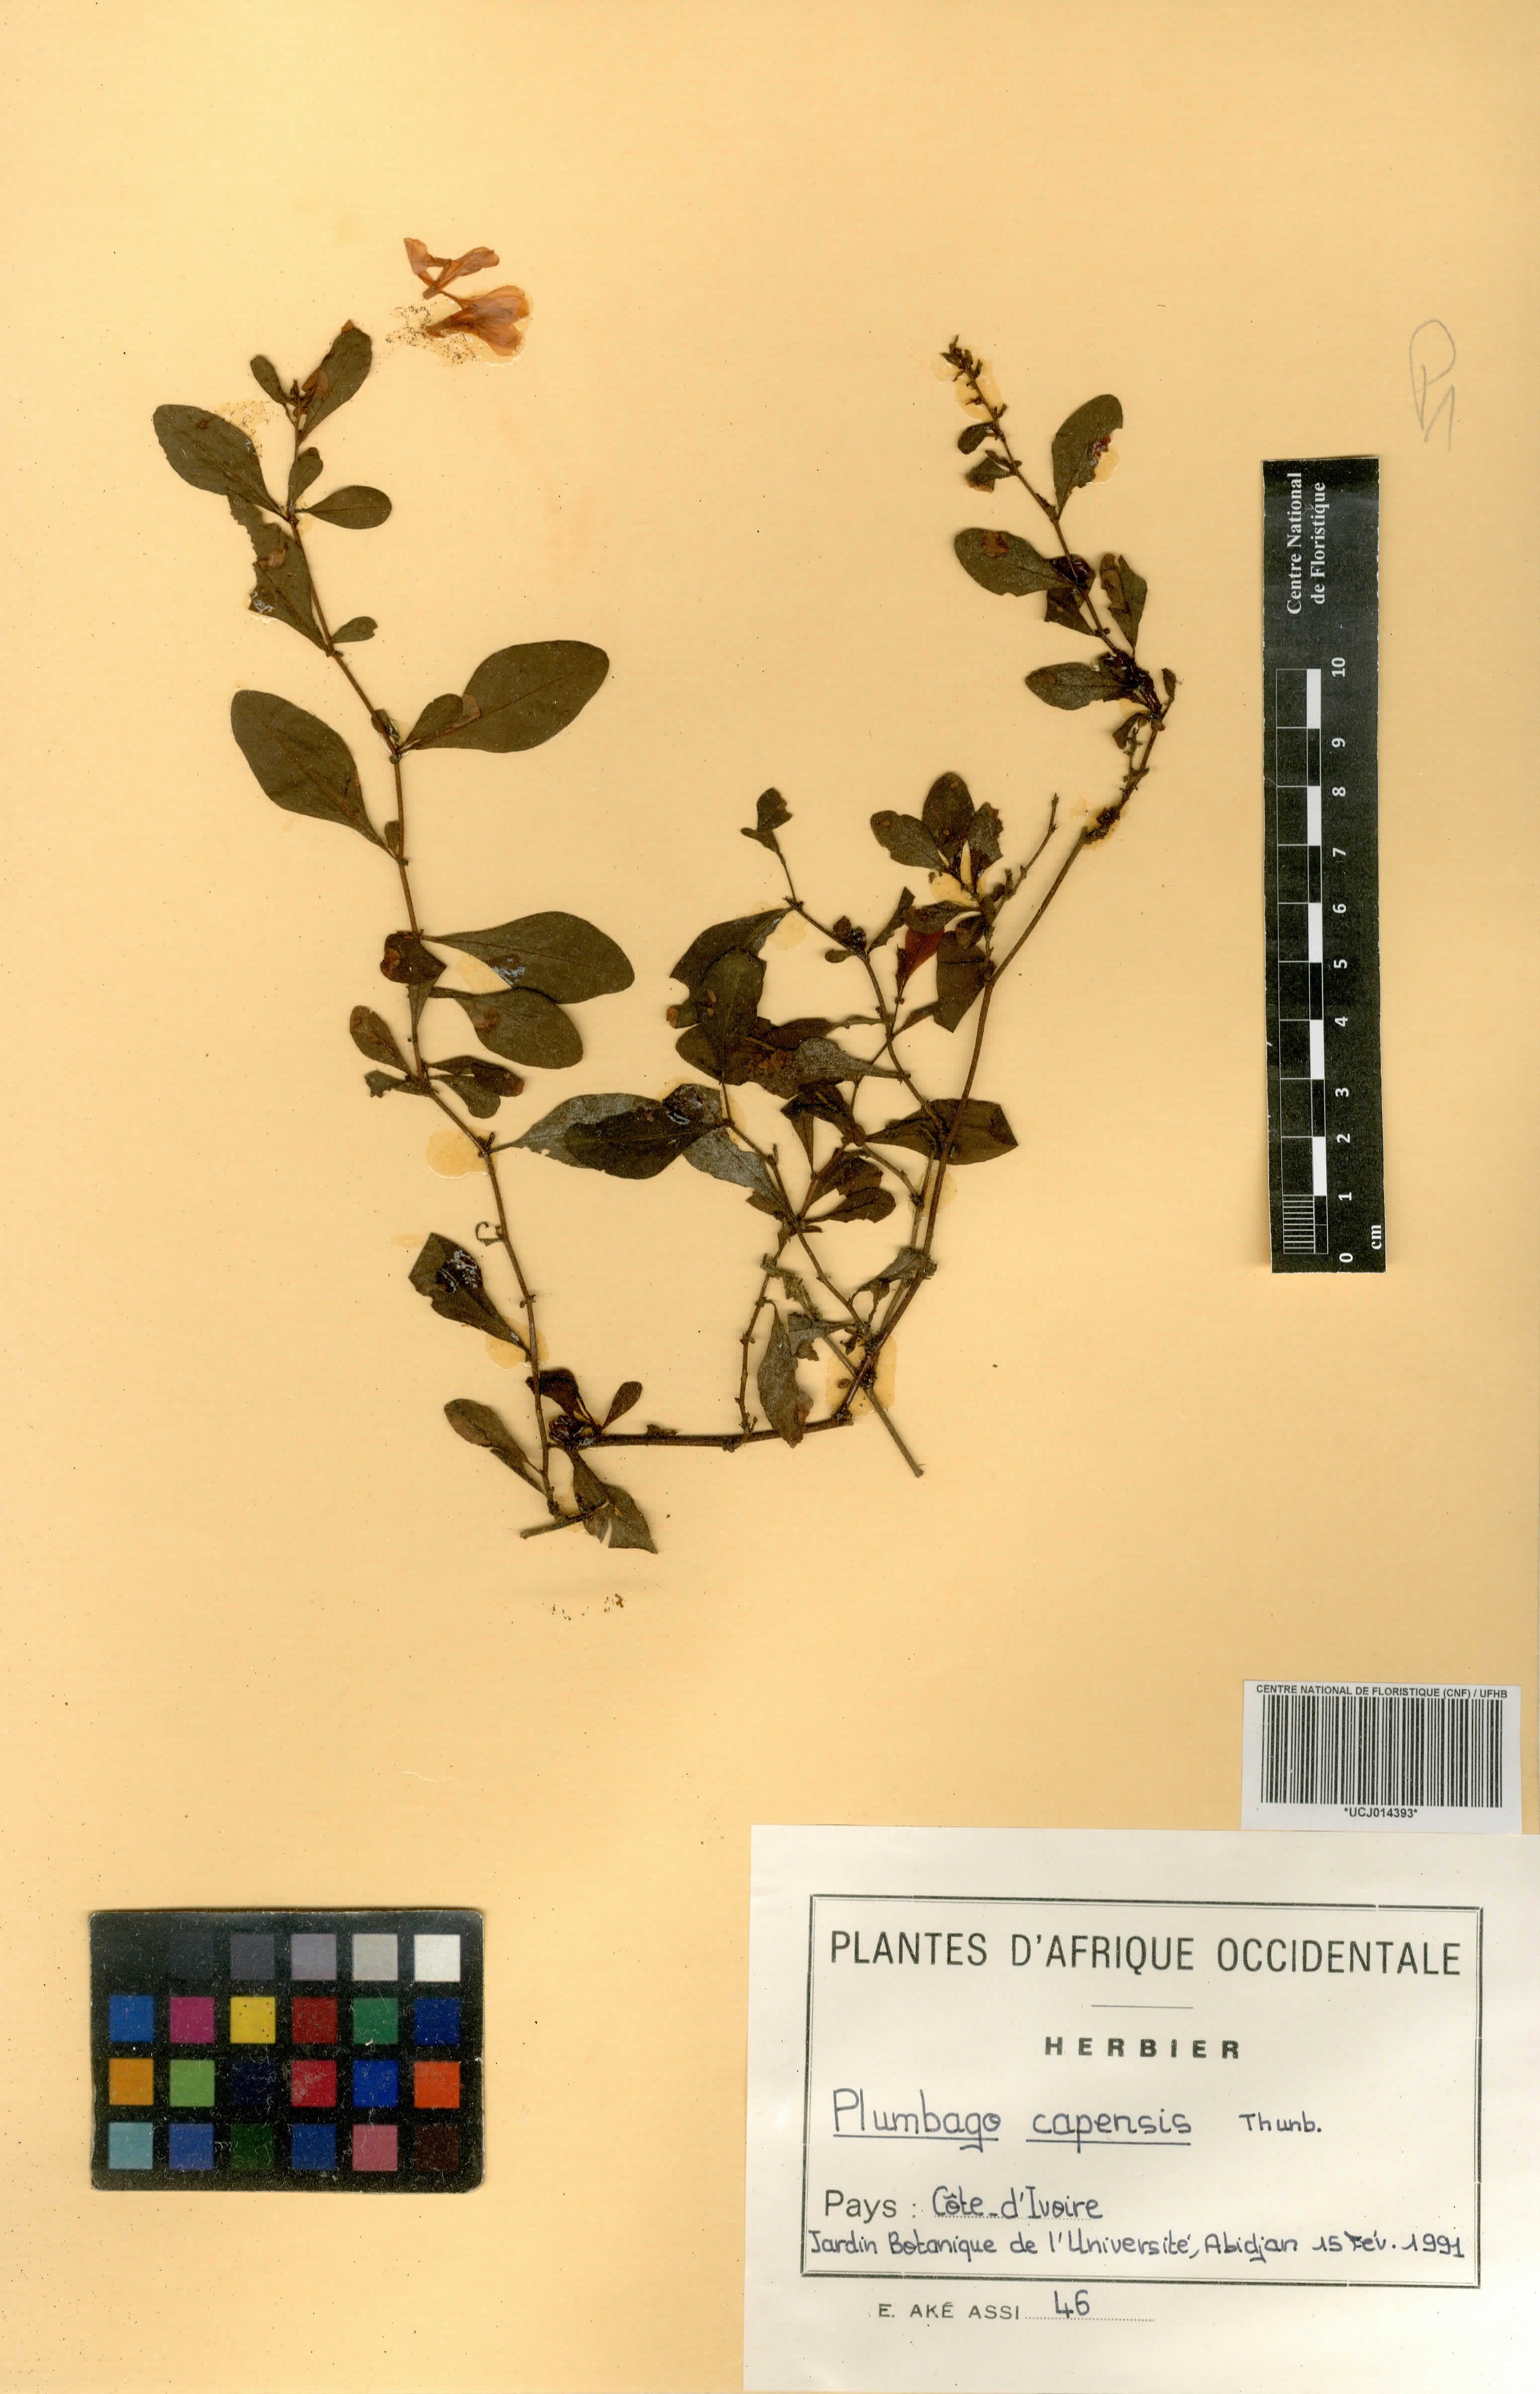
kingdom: Plantae
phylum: Tracheophyta
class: Magnoliopsida
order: Caryophyllales
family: Plumbaginaceae
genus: Plumbago
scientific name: Plumbago auriculata
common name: Cape leadwort
